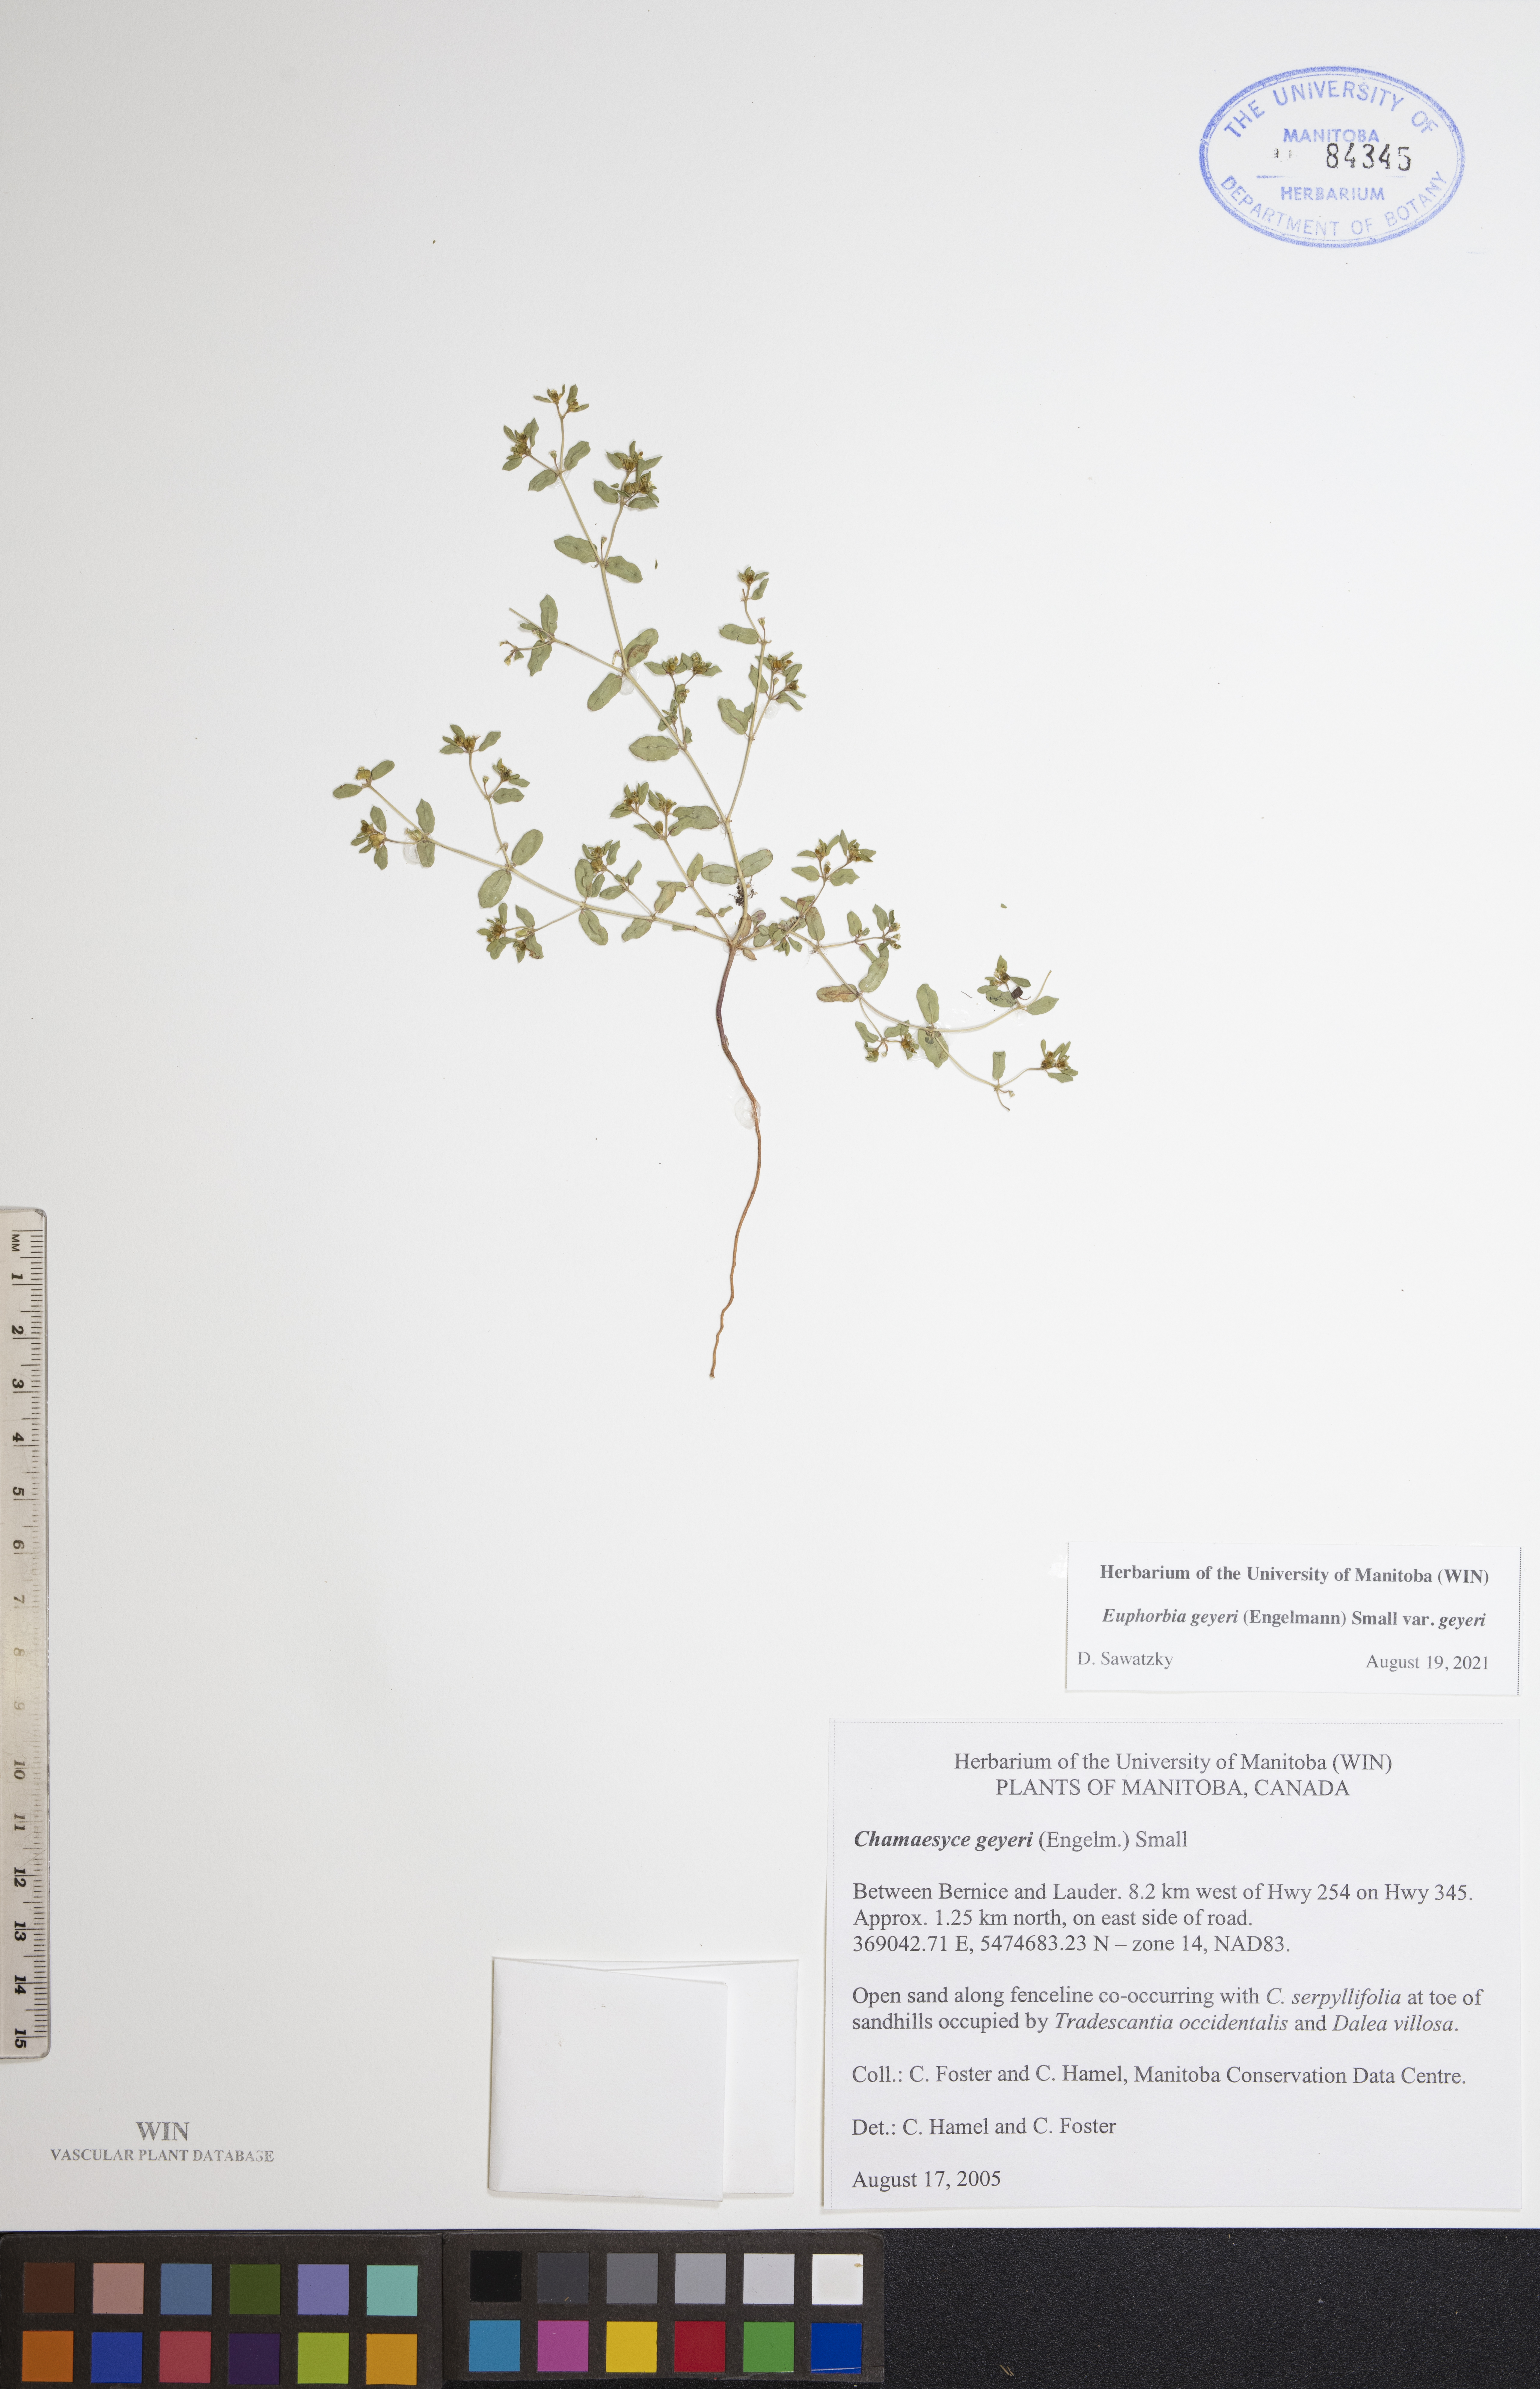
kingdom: Plantae
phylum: Tracheophyta
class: Magnoliopsida
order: Malpighiales
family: Euphorbiaceae
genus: Euphorbia
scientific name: Euphorbia geyeri
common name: Geyer's spurge
